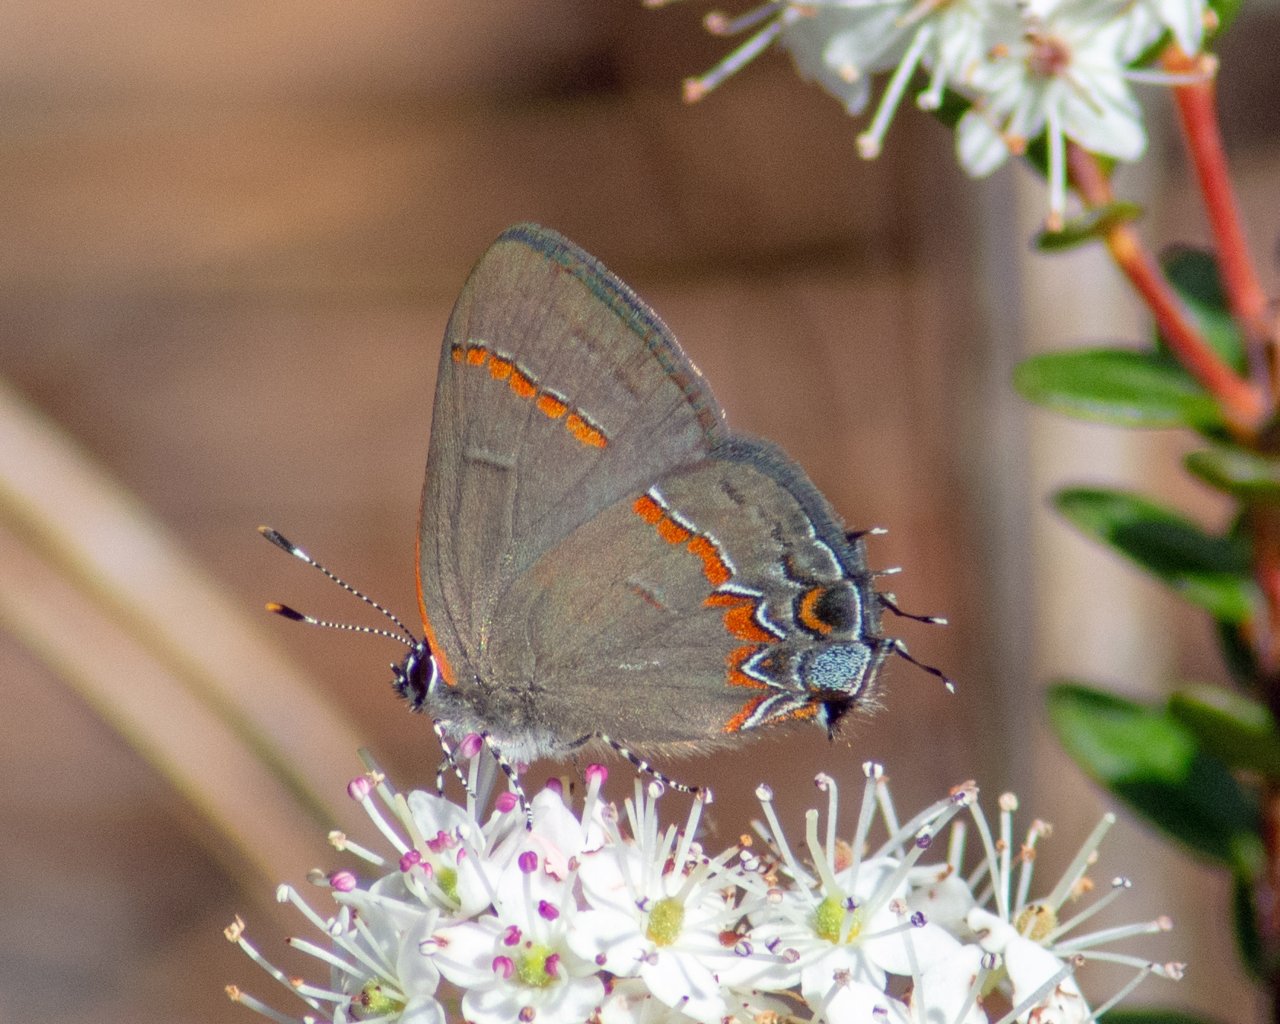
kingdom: Animalia
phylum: Arthropoda
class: Insecta
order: Lepidoptera
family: Lycaenidae
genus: Calycopis
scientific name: Calycopis cecrops
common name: Red-banded Hairstreak
